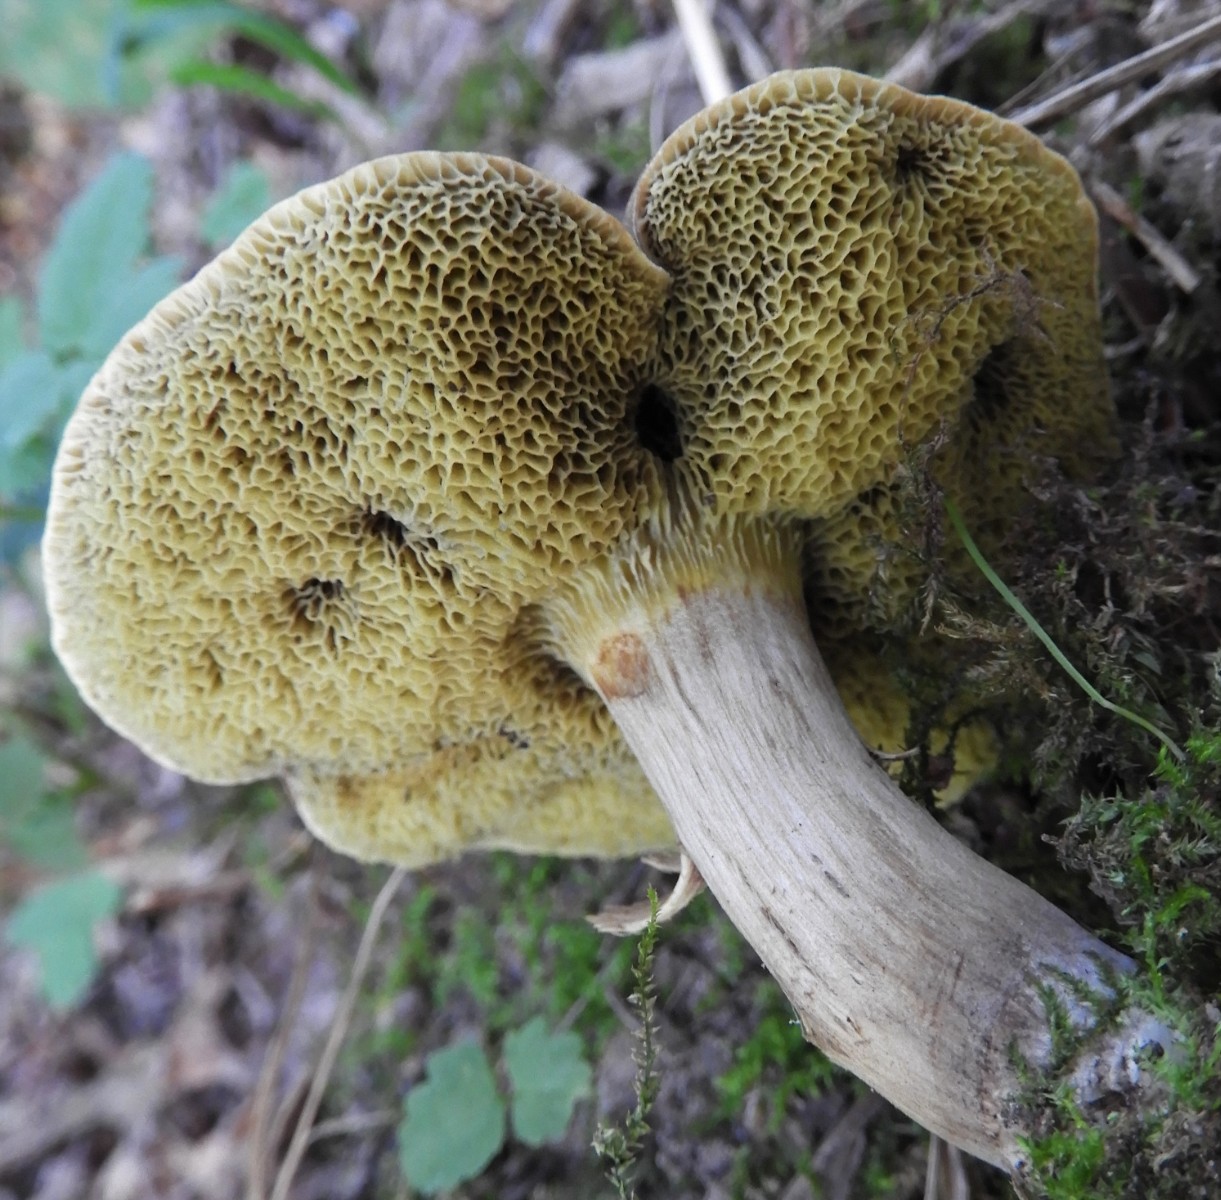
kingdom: Fungi
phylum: Basidiomycota
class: Agaricomycetes
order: Boletales
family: Boletaceae
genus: Xerocomellus
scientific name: Xerocomellus porosporus
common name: hvidsprukken rørhat
